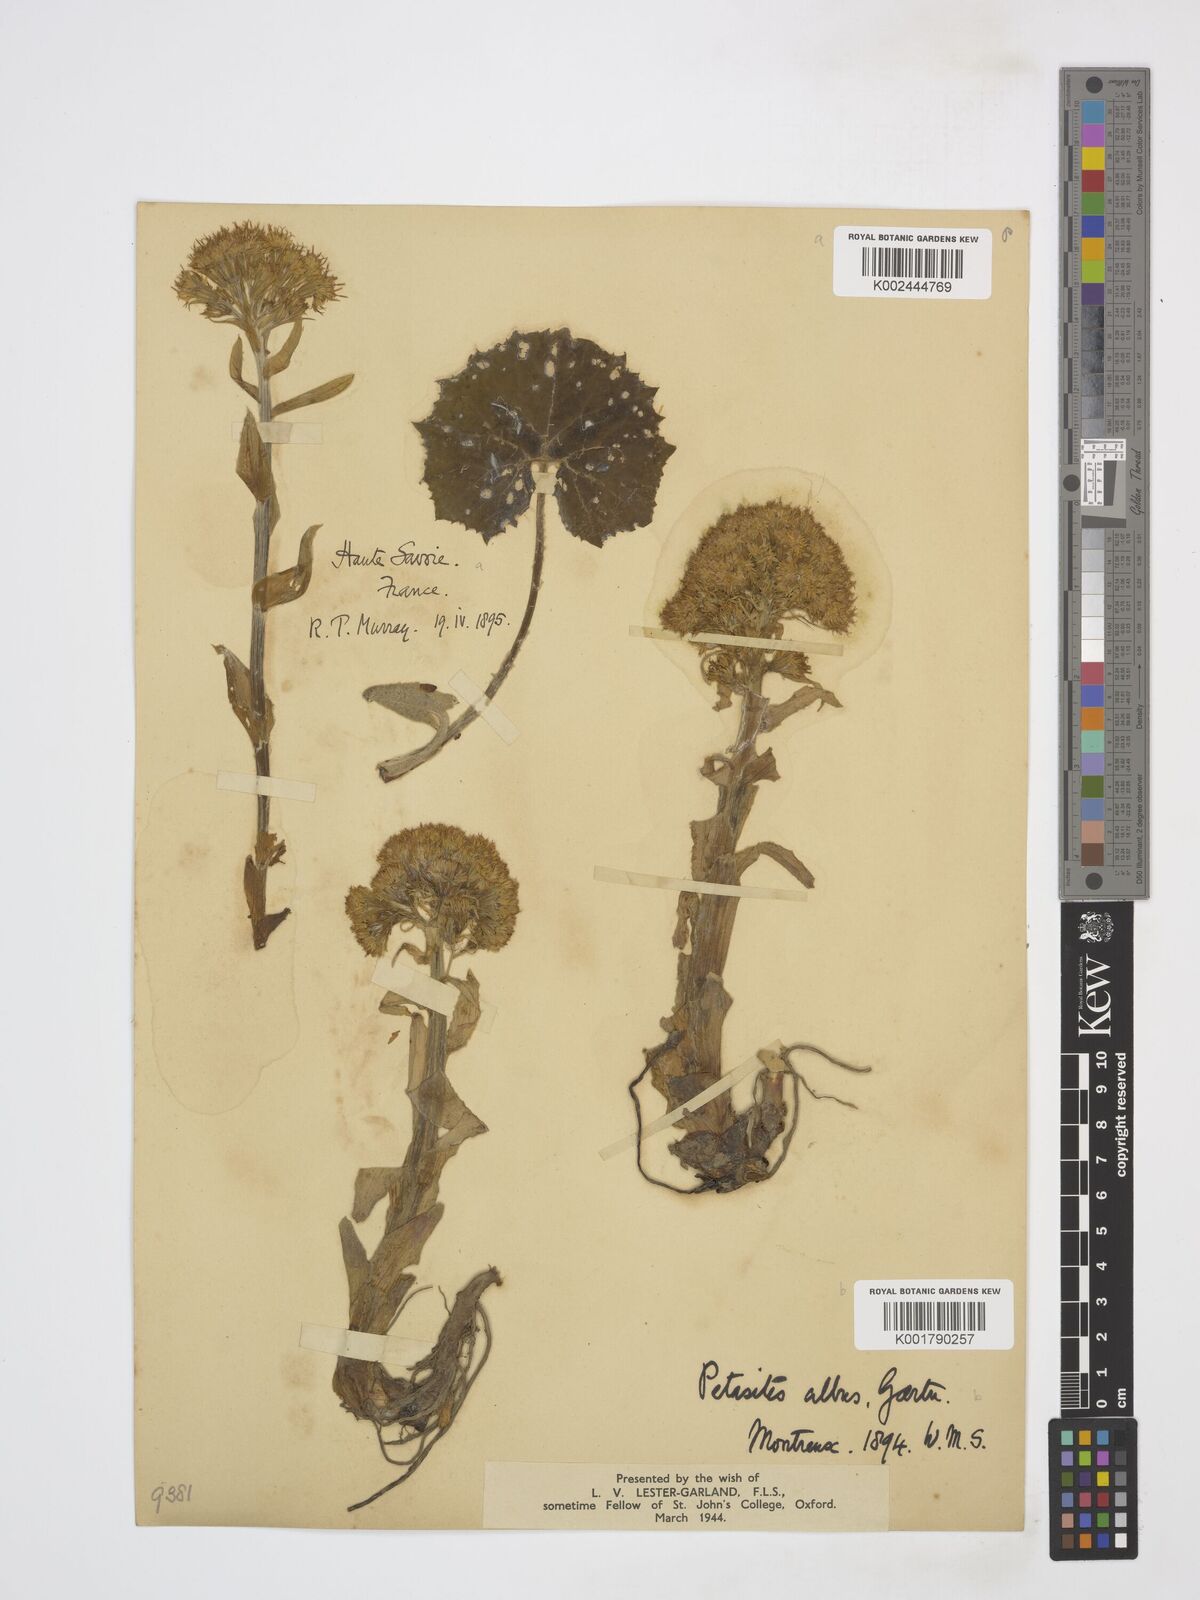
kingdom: Plantae
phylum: Tracheophyta
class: Magnoliopsida
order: Asterales
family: Asteraceae
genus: Petasites
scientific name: Petasites albus
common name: White butterbur
